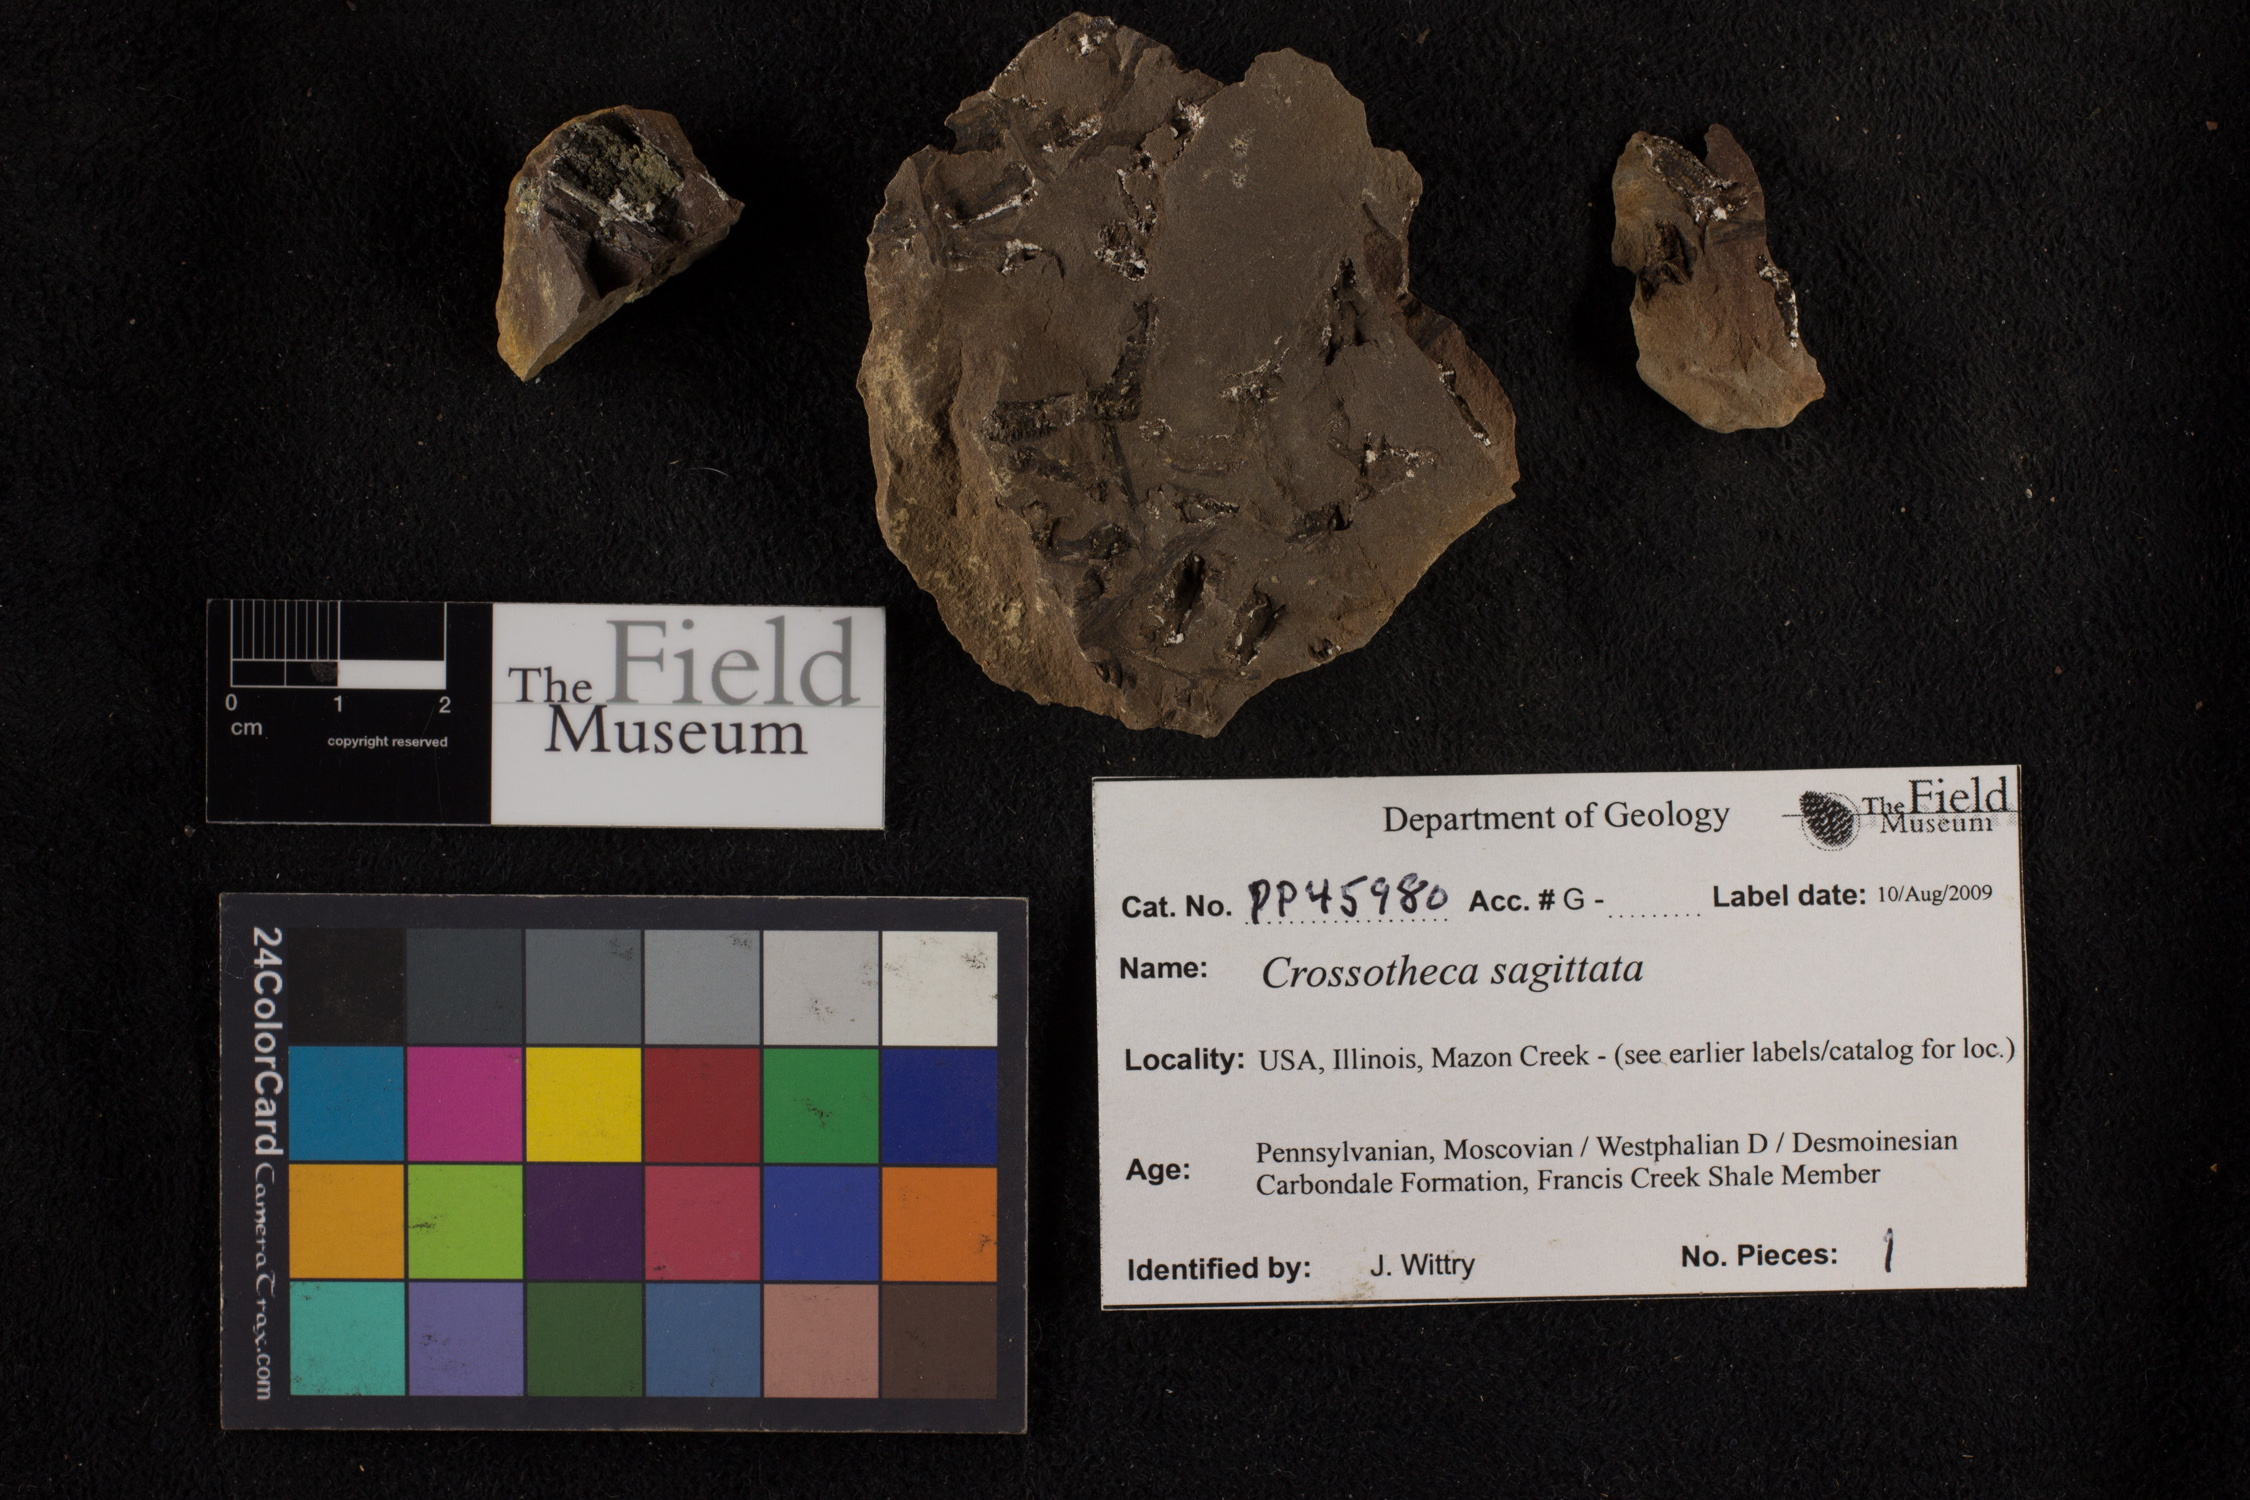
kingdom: Plantae
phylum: Tracheophyta
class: Polypodiopsida
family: Stauropteridaceae
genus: Crossotheca
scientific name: Crossotheca
